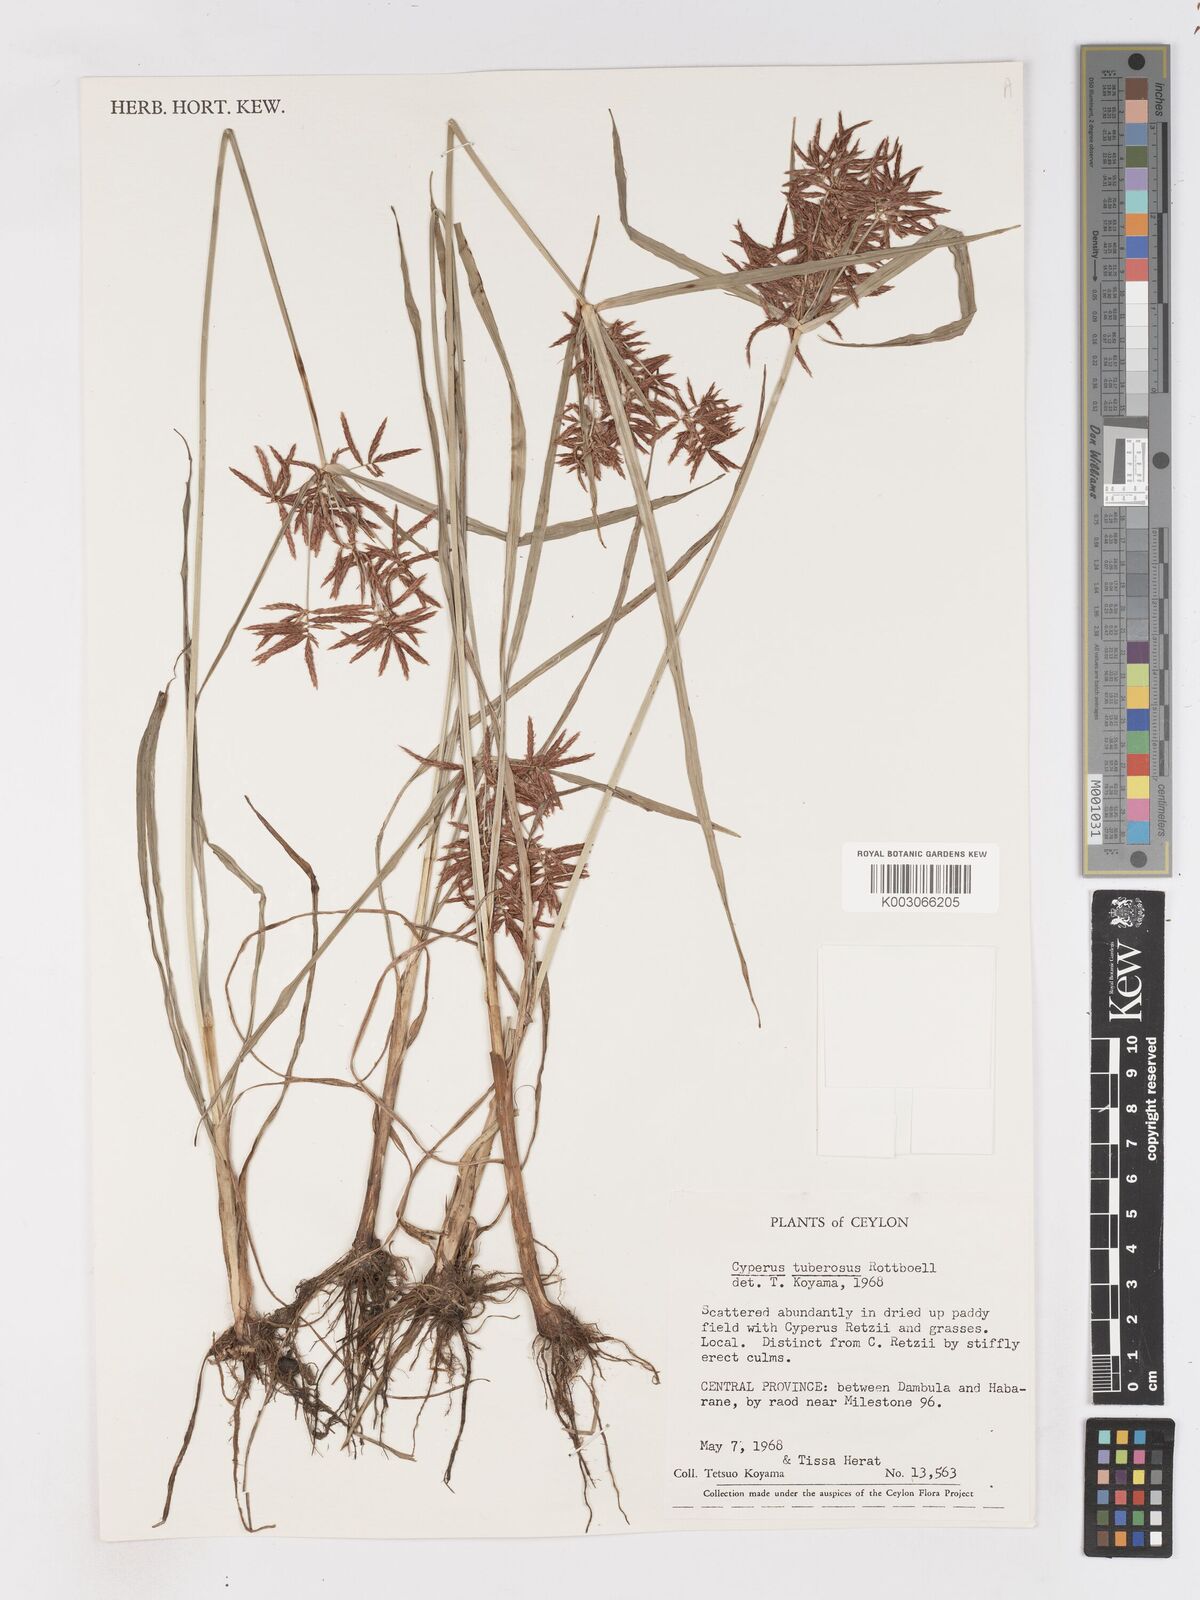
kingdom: Plantae
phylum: Tracheophyta
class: Liliopsida
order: Poales
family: Cyperaceae
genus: Cyperus
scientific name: Cyperus bifax
